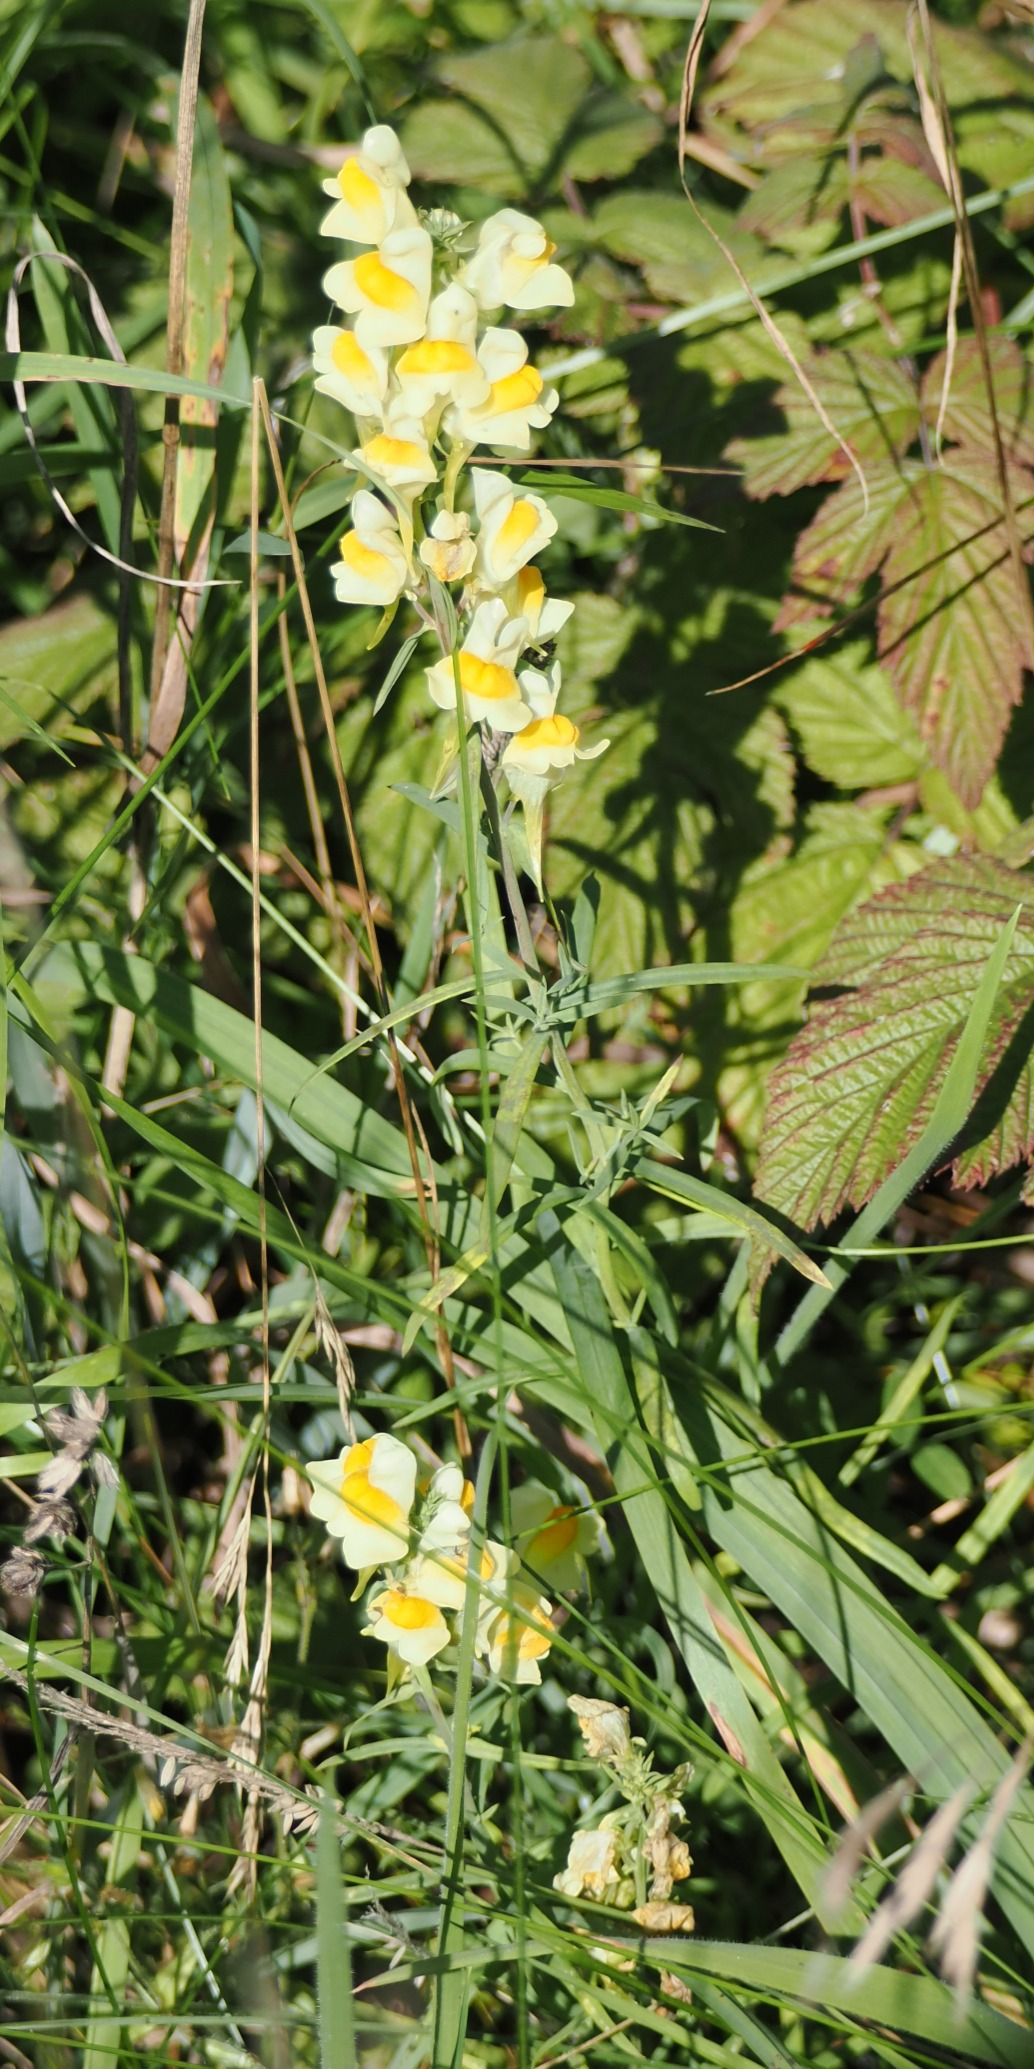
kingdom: Plantae
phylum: Tracheophyta
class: Magnoliopsida
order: Lamiales
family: Plantaginaceae
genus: Linaria
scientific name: Linaria vulgaris
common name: Almindelig torskemund
